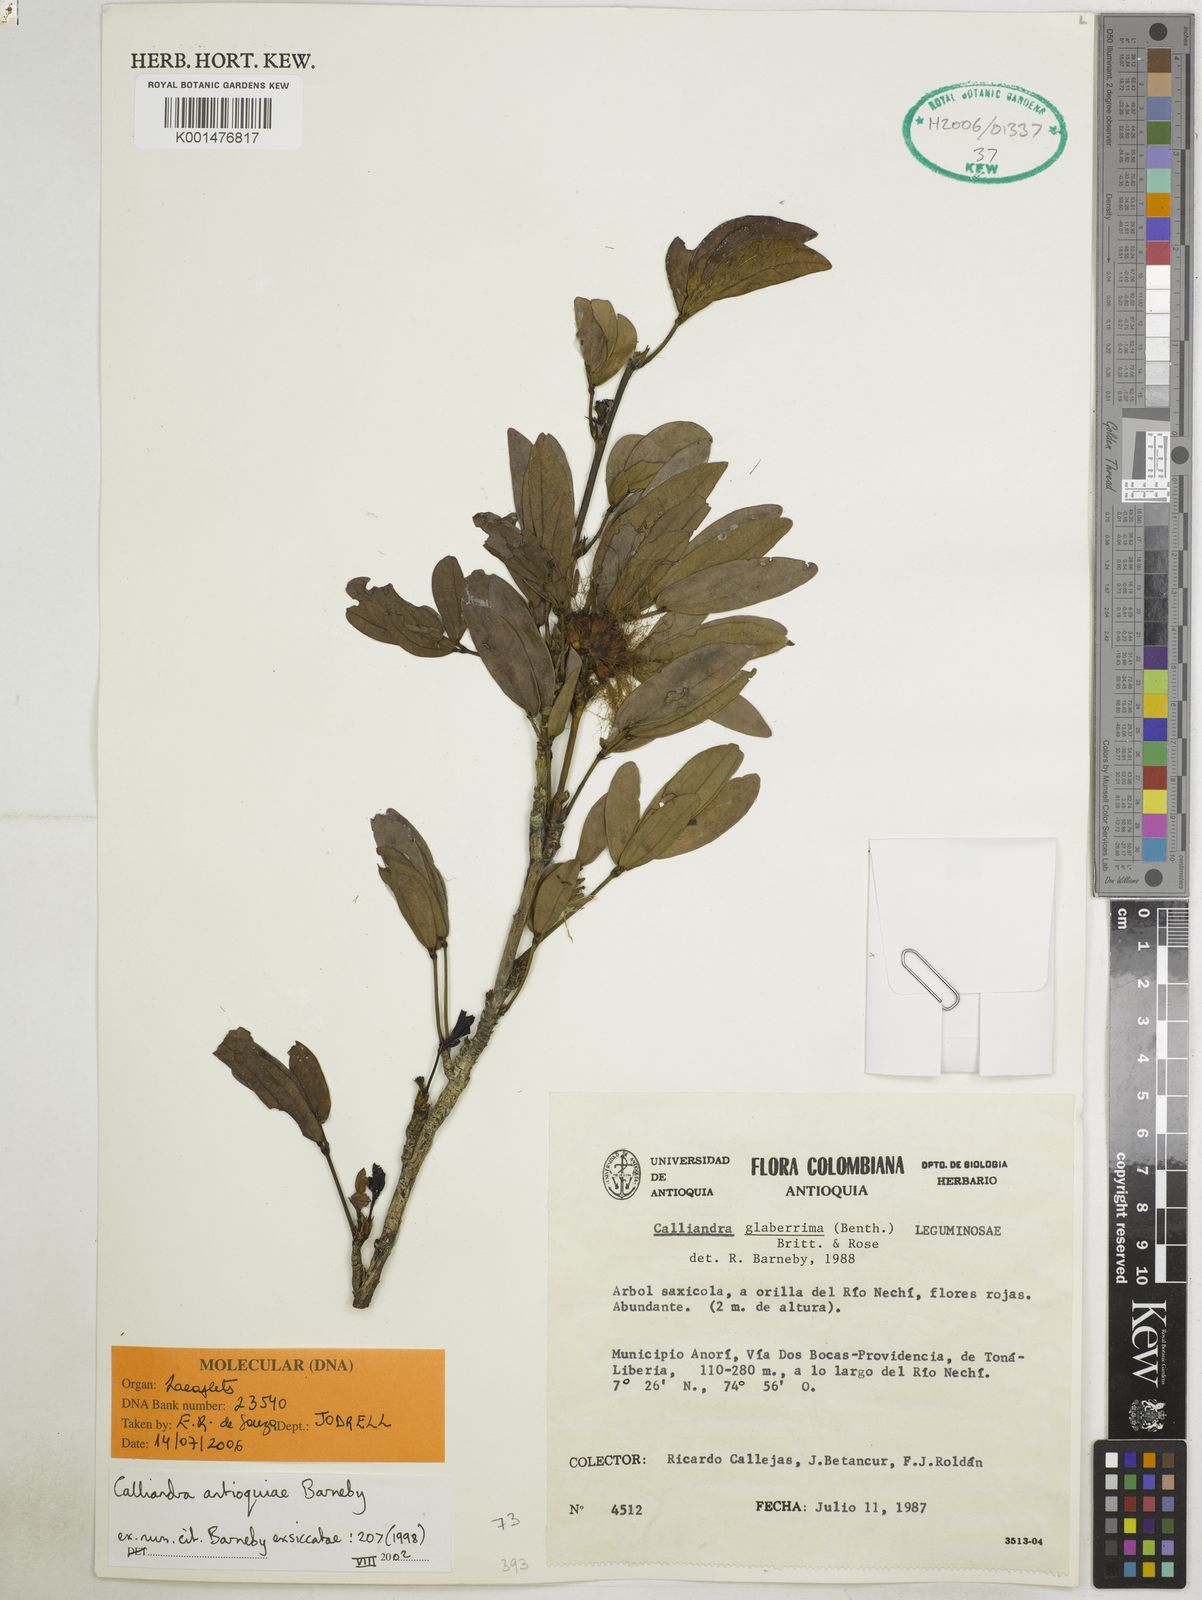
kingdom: Plantae
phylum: Tracheophyta
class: Magnoliopsida
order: Fabales
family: Fabaceae
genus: Calliandra
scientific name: Calliandra antioquiae
